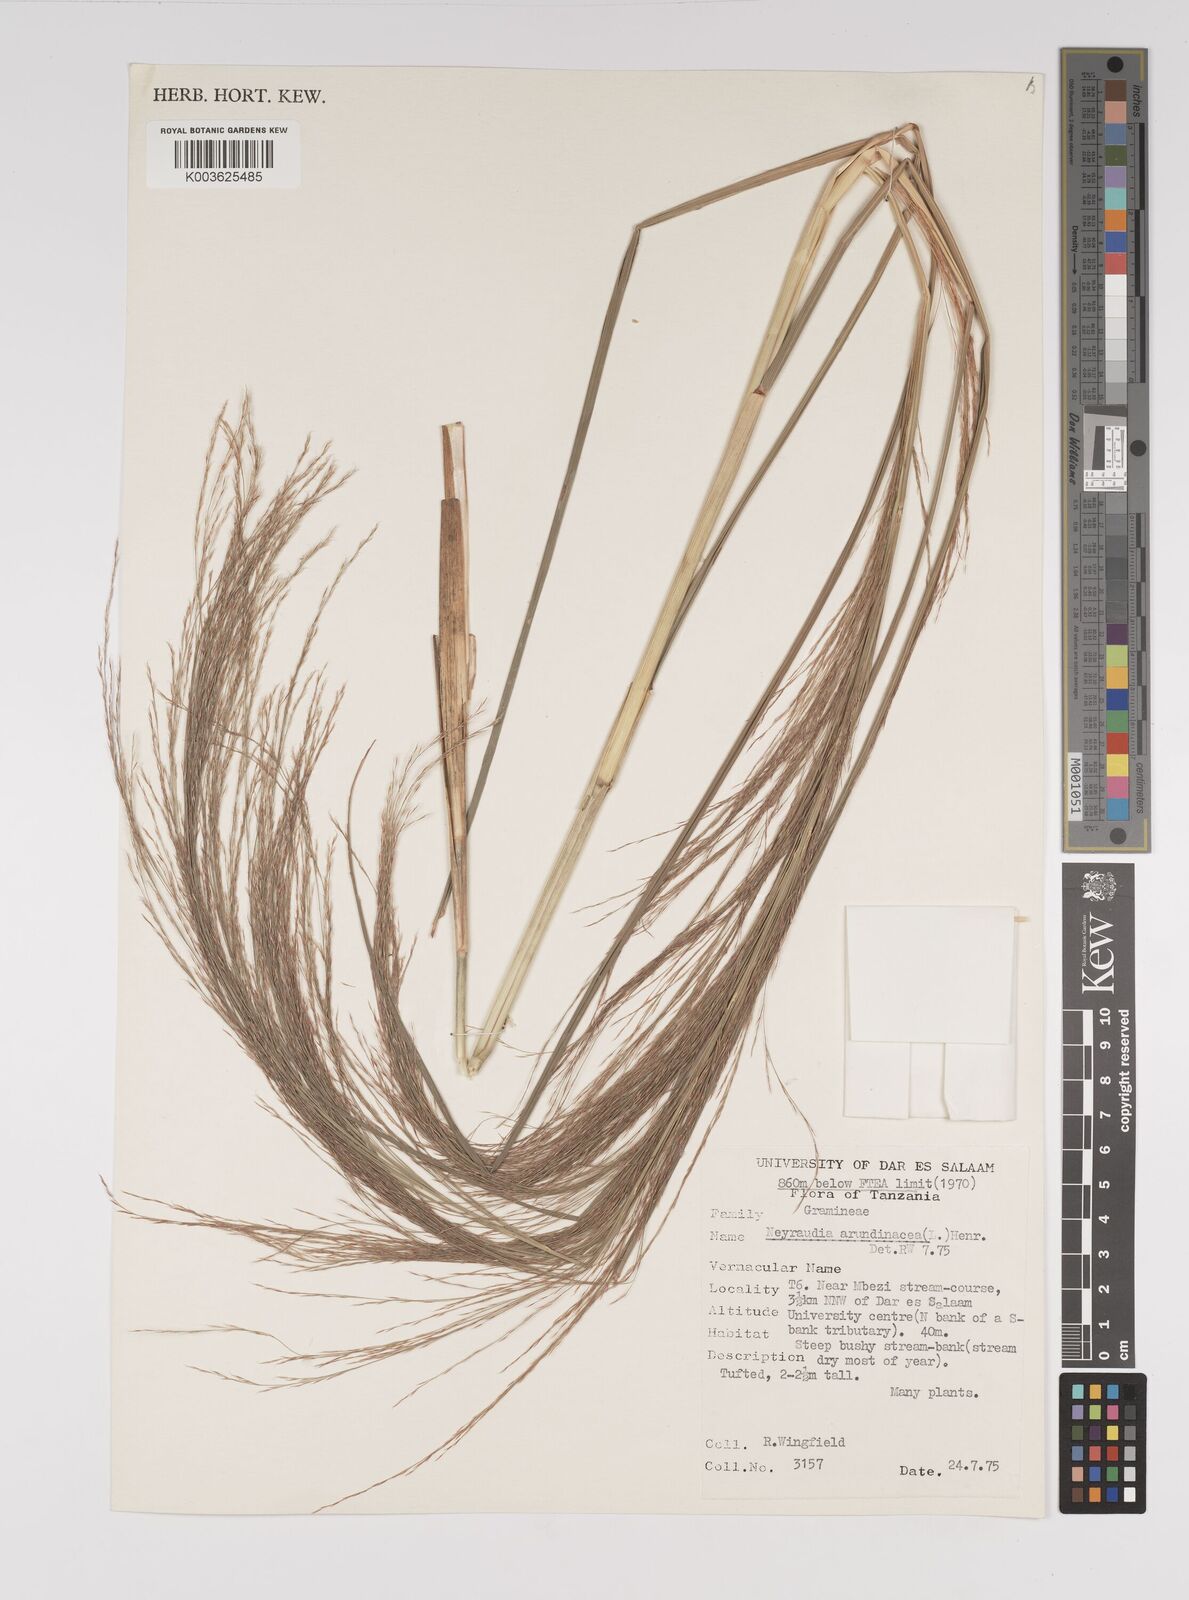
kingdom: Plantae
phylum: Tracheophyta
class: Liliopsida
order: Poales
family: Poaceae
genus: Neyraudia
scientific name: Neyraudia arundinacea
